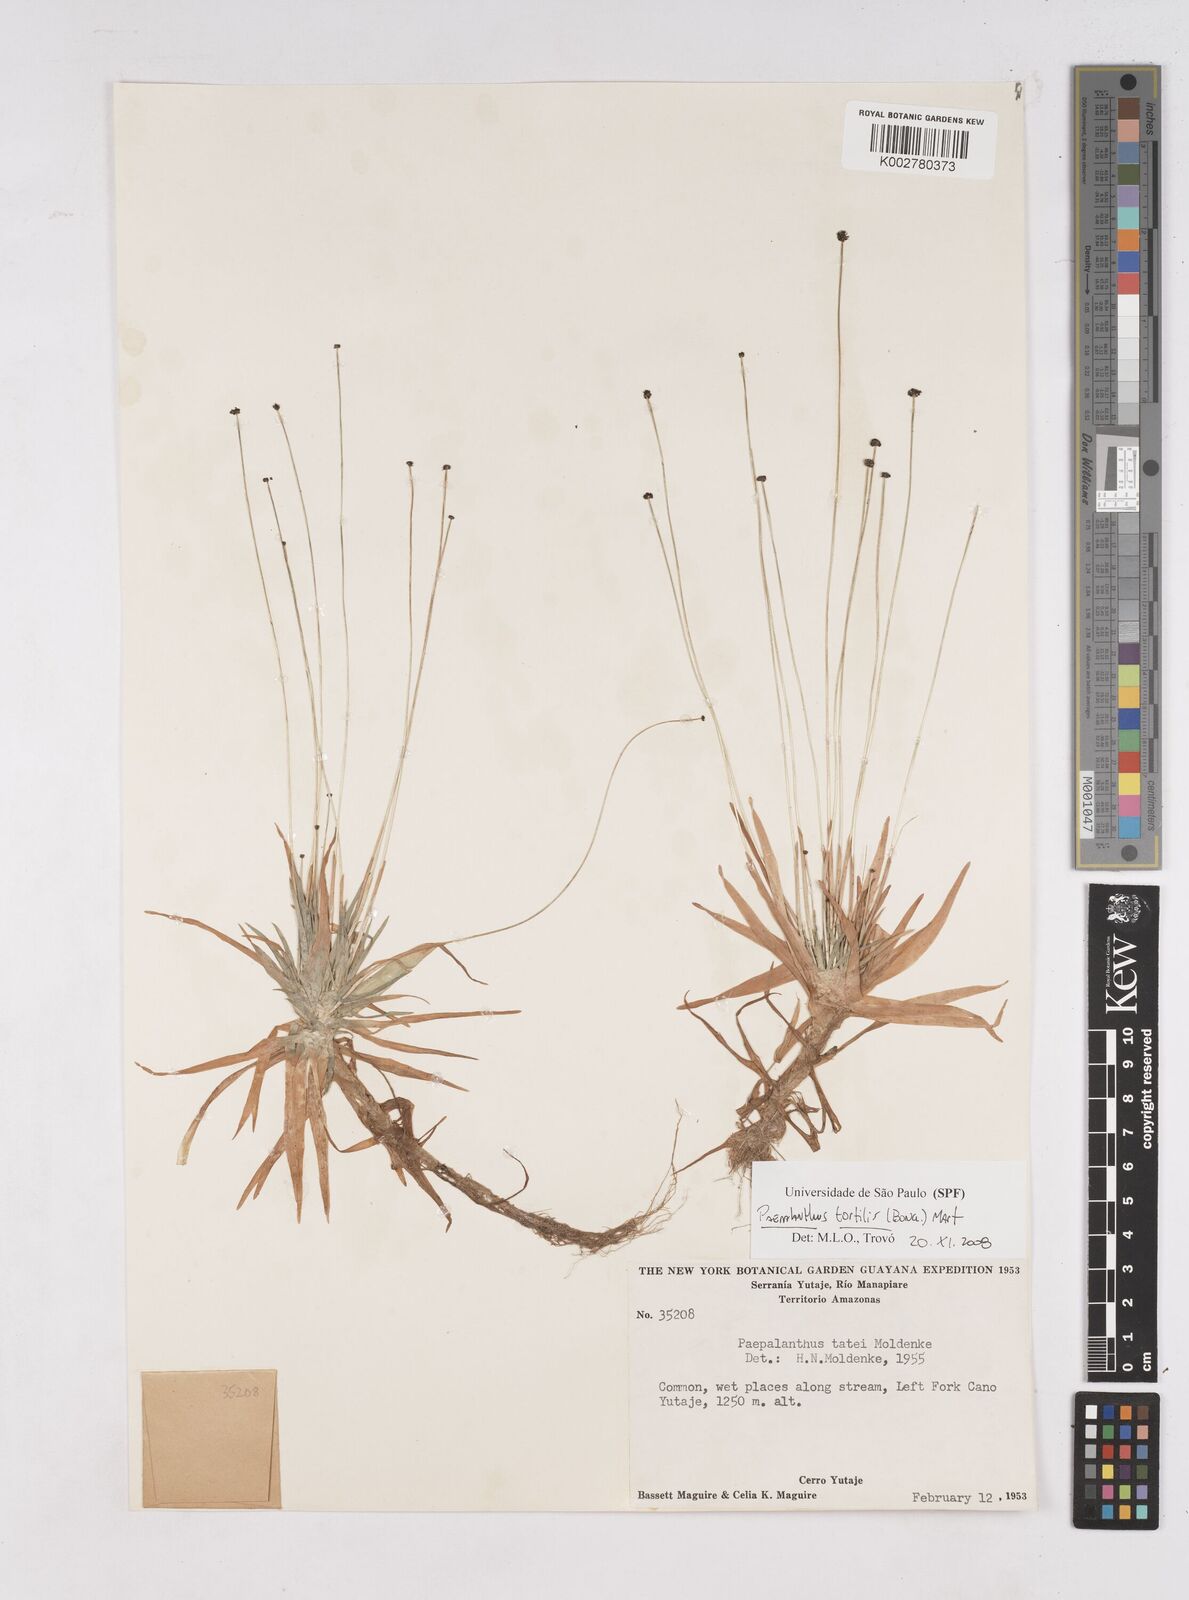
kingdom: Plantae
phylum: Tracheophyta
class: Liliopsida
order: Poales
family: Eriocaulaceae
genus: Paepalanthus
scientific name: Paepalanthus tortilis
